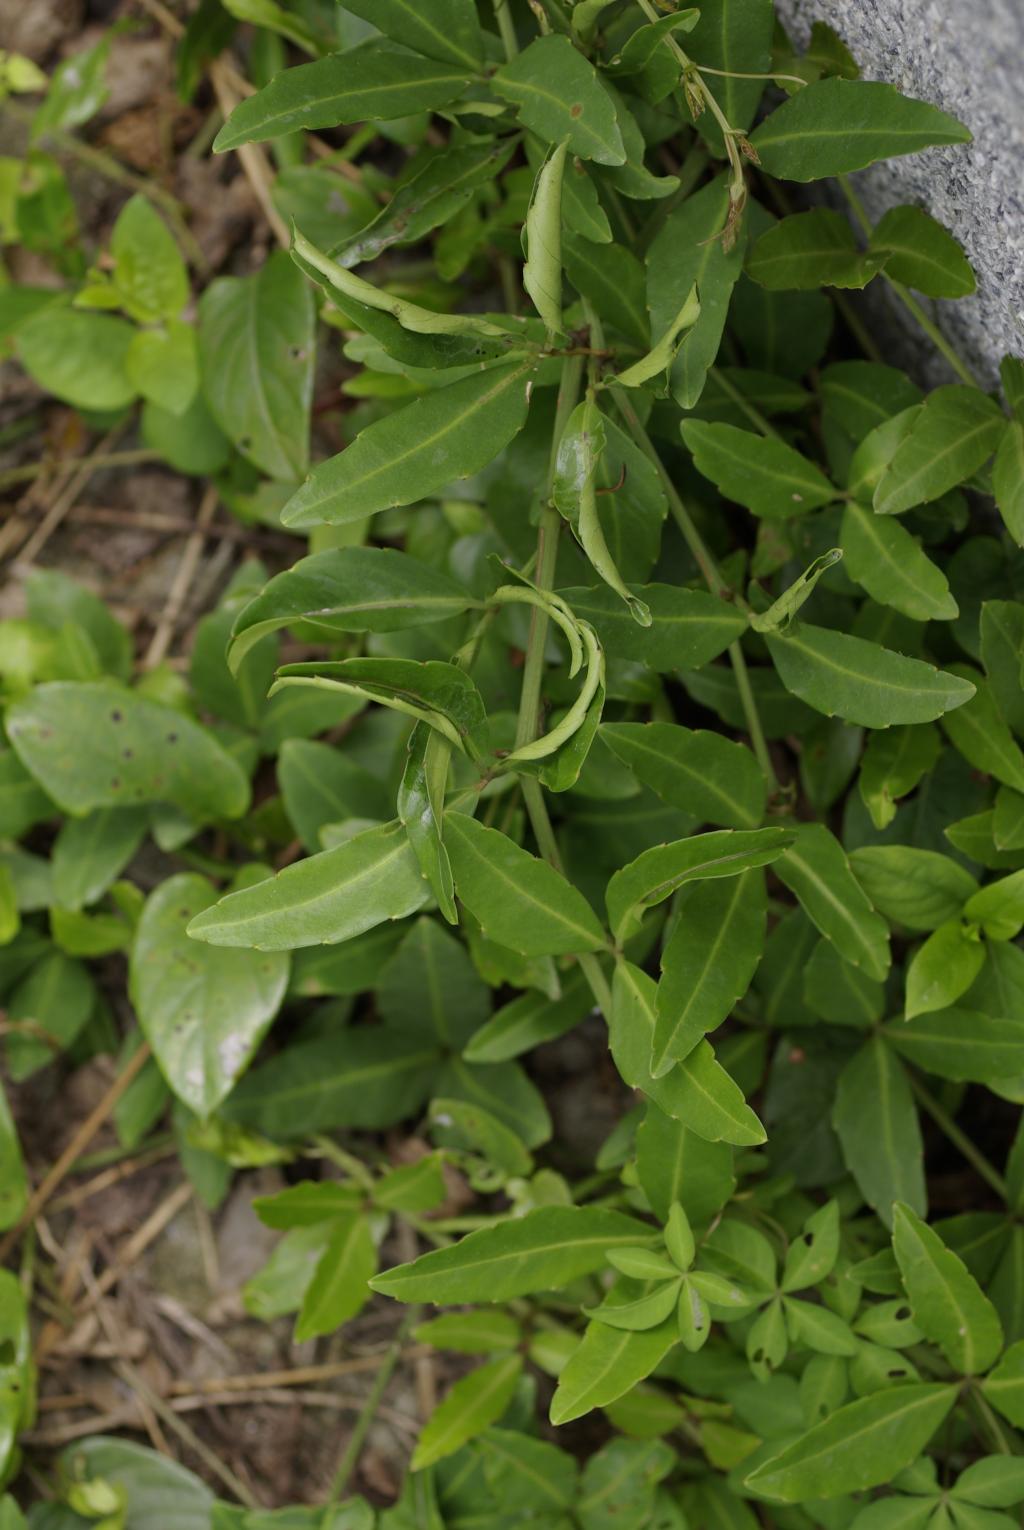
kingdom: Plantae
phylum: Tracheophyta
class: Magnoliopsida
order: Vitales
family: Vitaceae
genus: Tetrastigma
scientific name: Tetrastigma formosanum
